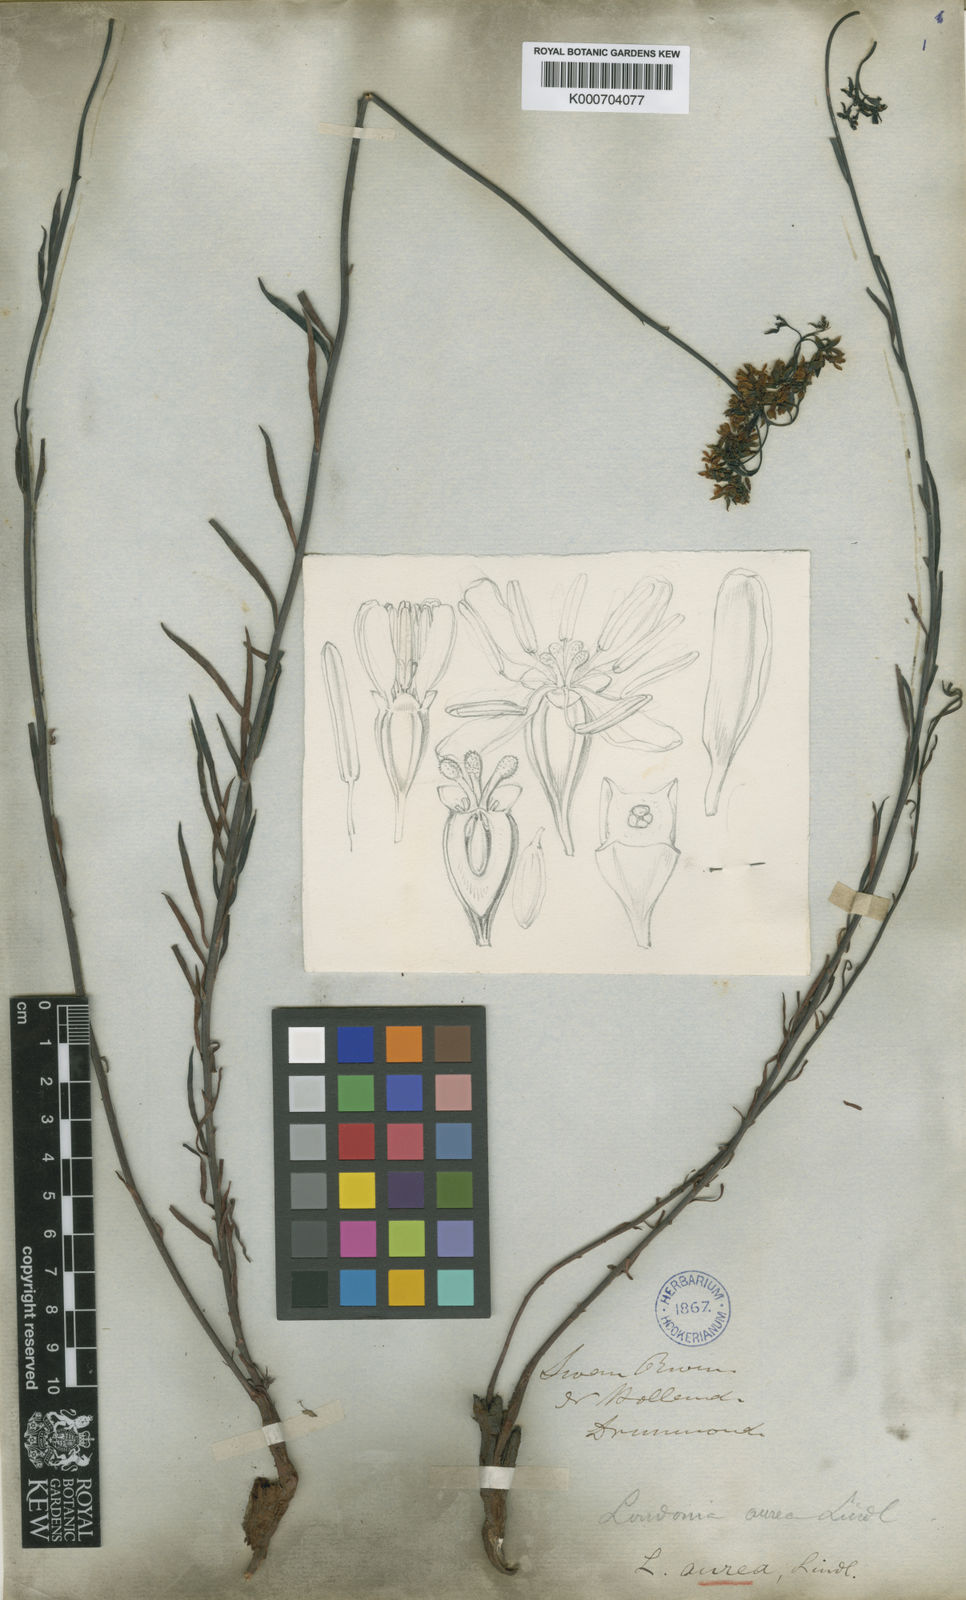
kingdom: Plantae
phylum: Tracheophyta
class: Magnoliopsida
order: Saxifragales
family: Haloragaceae
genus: Glischrocaryon
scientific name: Glischrocaryon aureum
